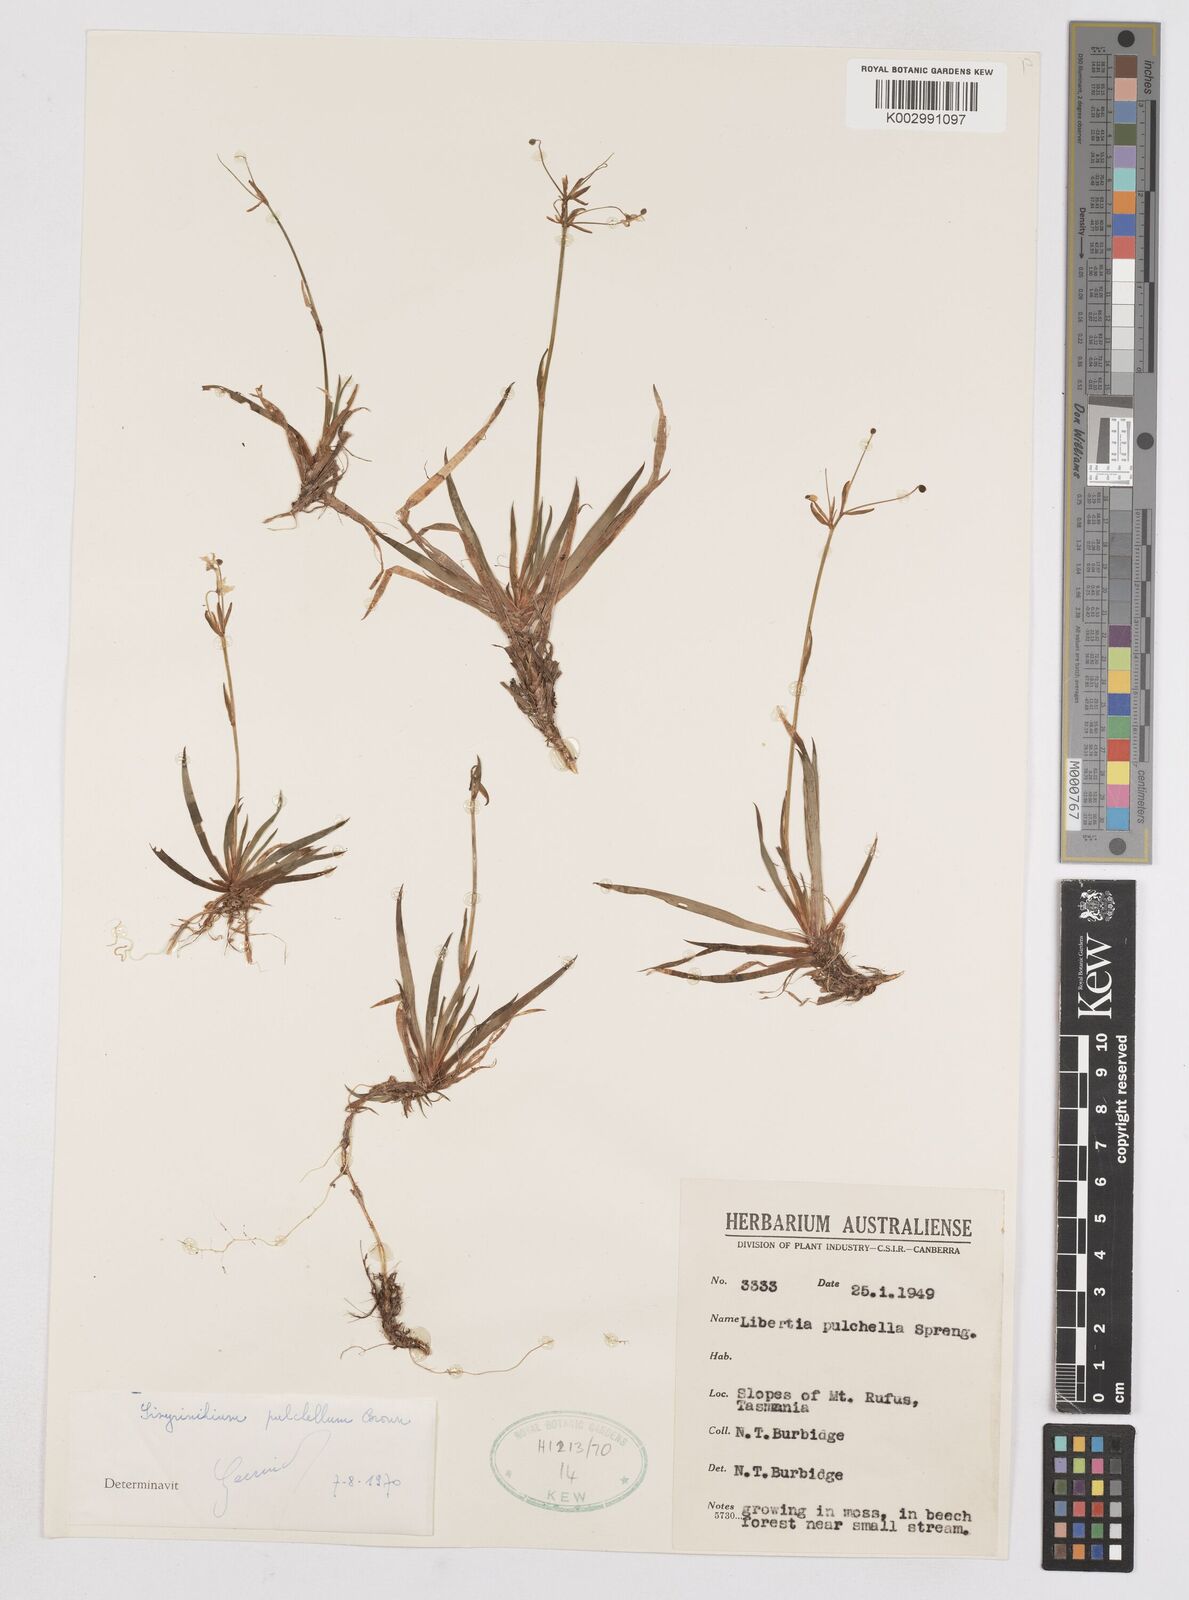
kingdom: Plantae
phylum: Tracheophyta
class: Liliopsida
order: Asparagales
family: Iridaceae
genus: Libertia
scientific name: Libertia pulchella
